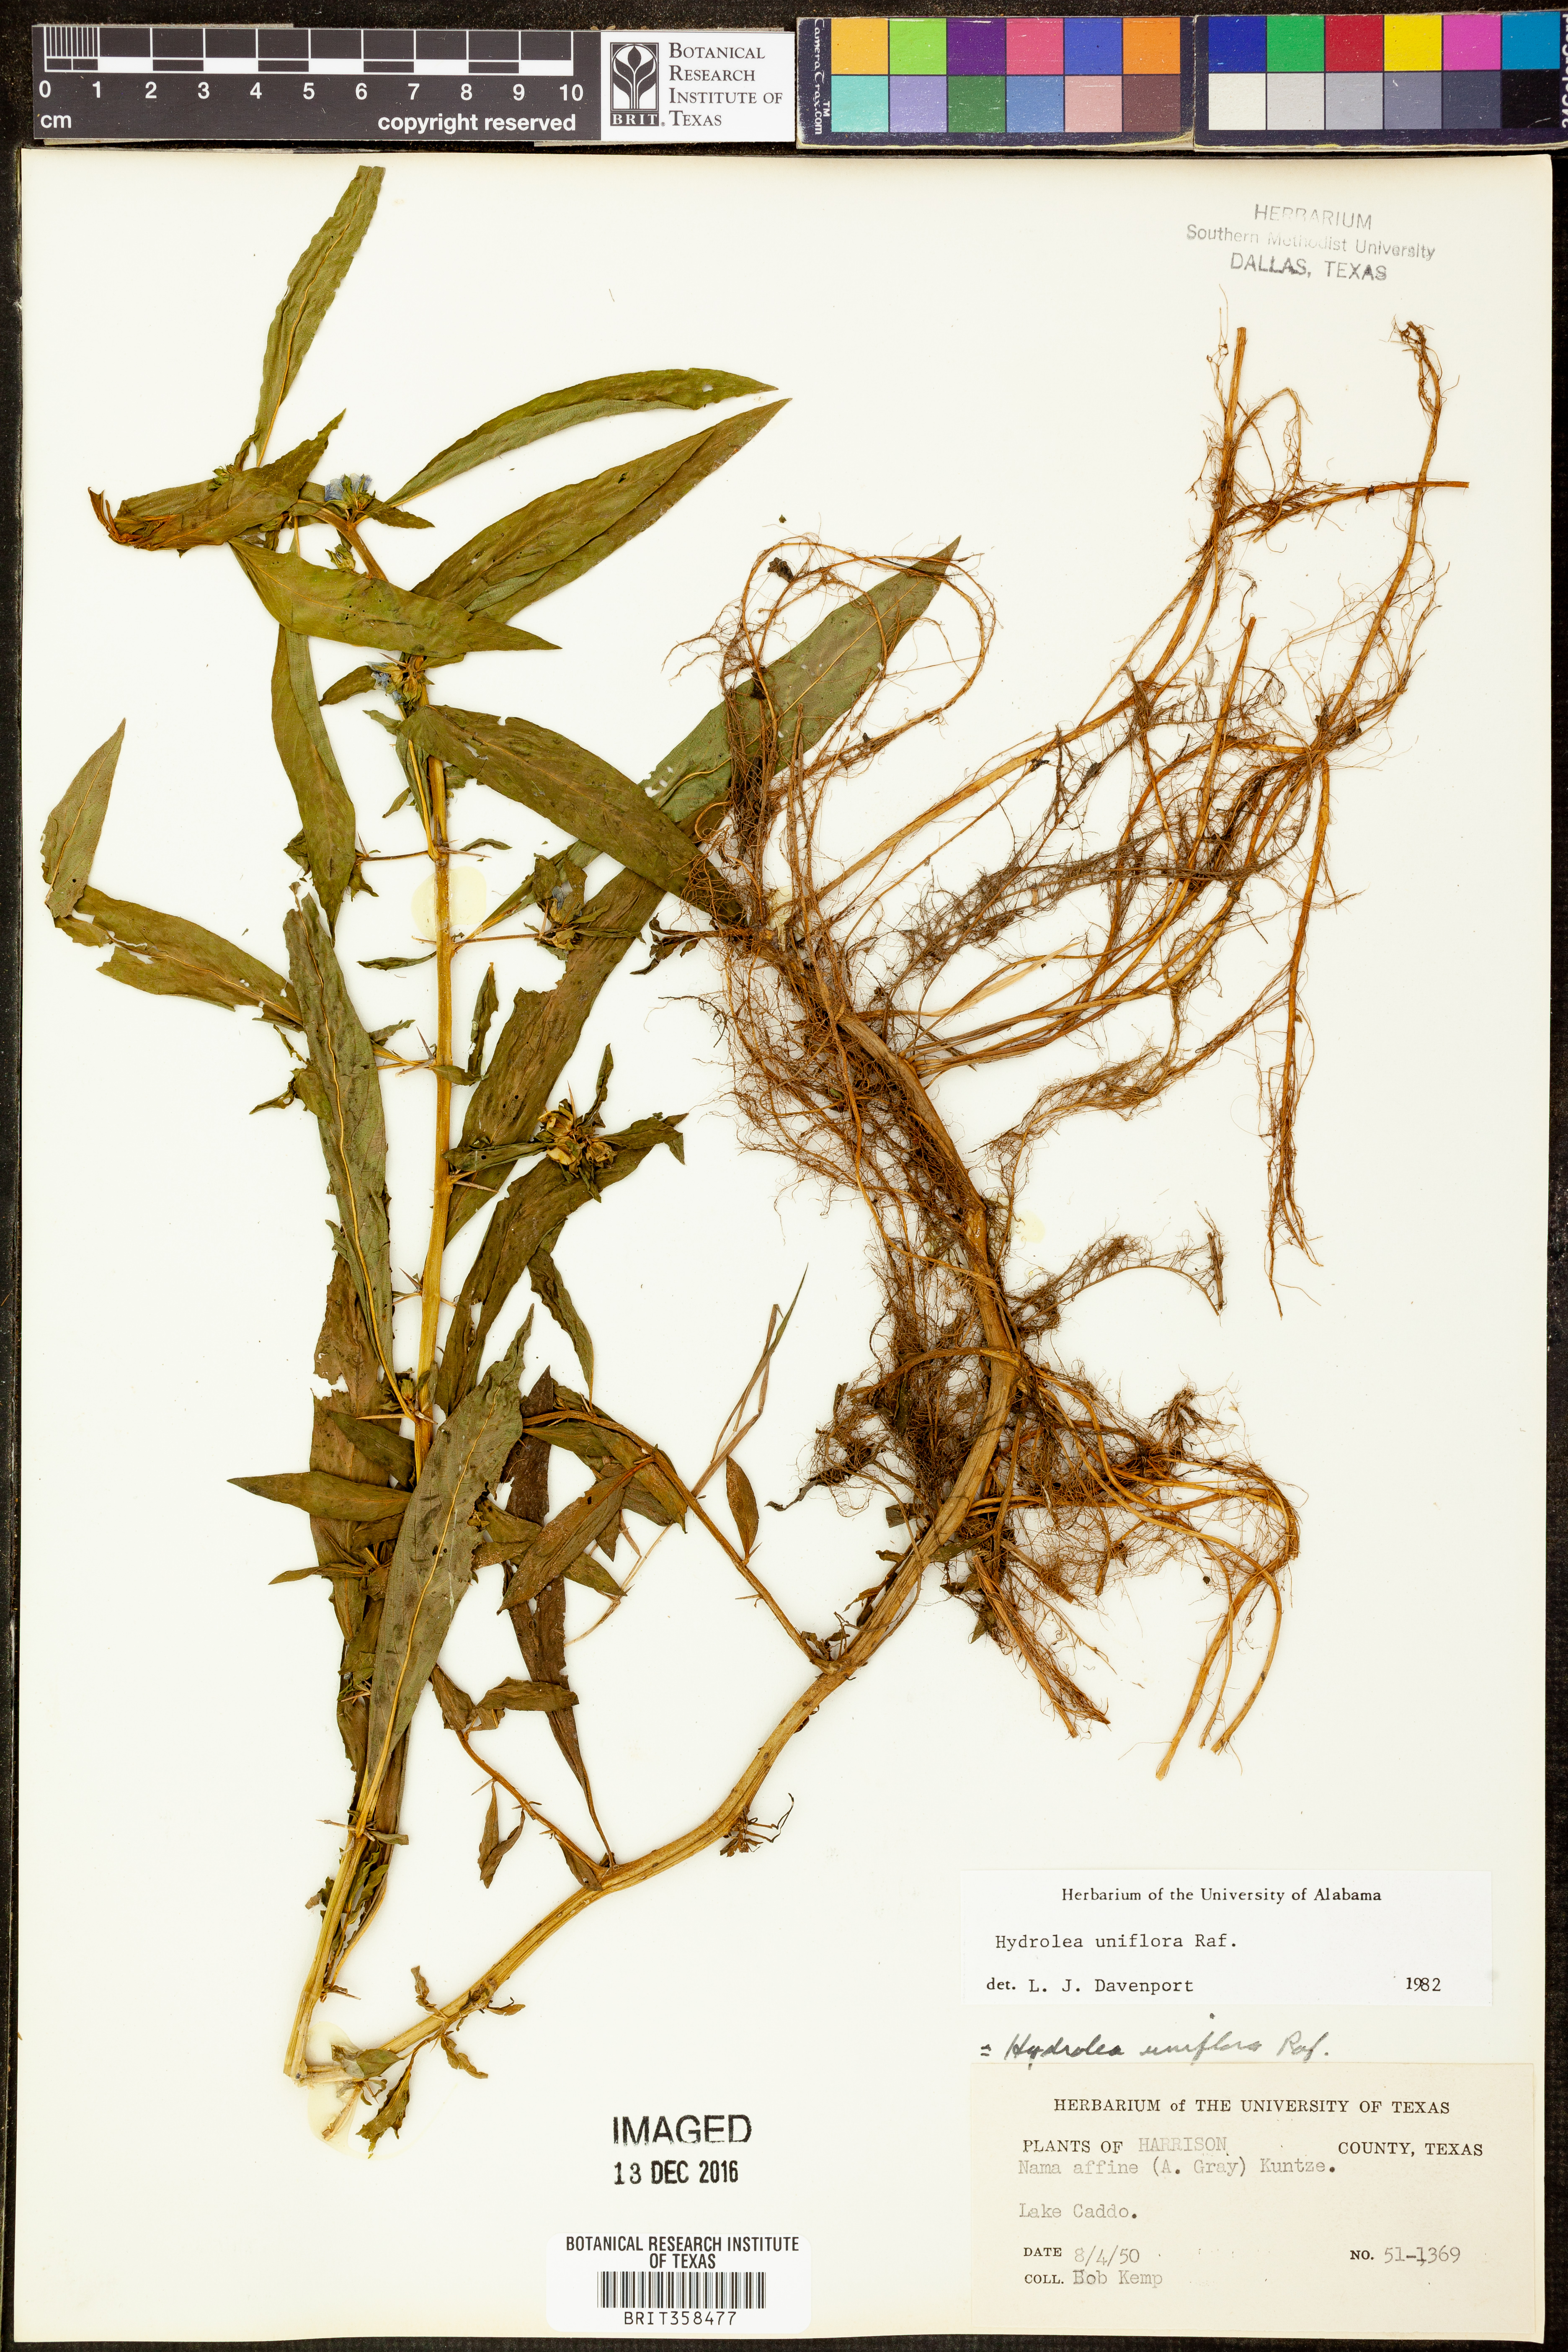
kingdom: Plantae
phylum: Tracheophyta
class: Magnoliopsida
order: Solanales
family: Hydroleaceae
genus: Hydrolea
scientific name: Hydrolea uniflora
